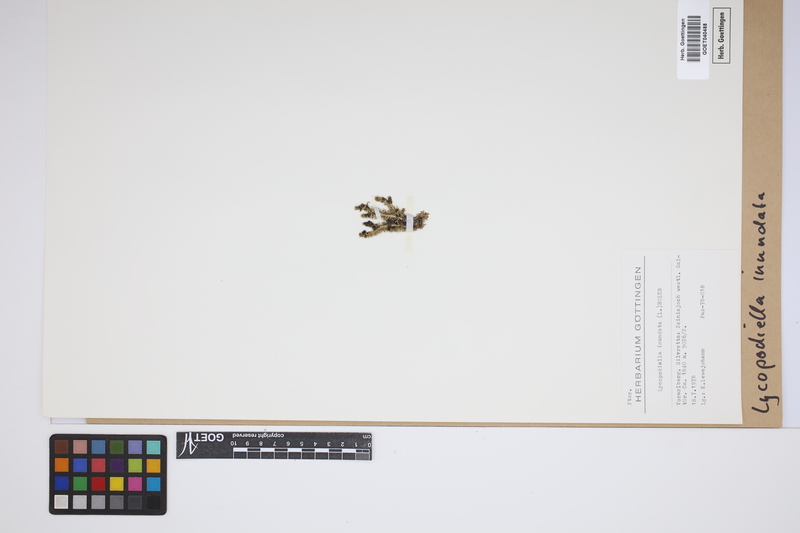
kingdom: Plantae
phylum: Tracheophyta
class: Lycopodiopsida
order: Lycopodiales
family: Lycopodiaceae
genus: Lycopodiella
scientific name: Lycopodiella inundata
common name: Marsh clubmoss
